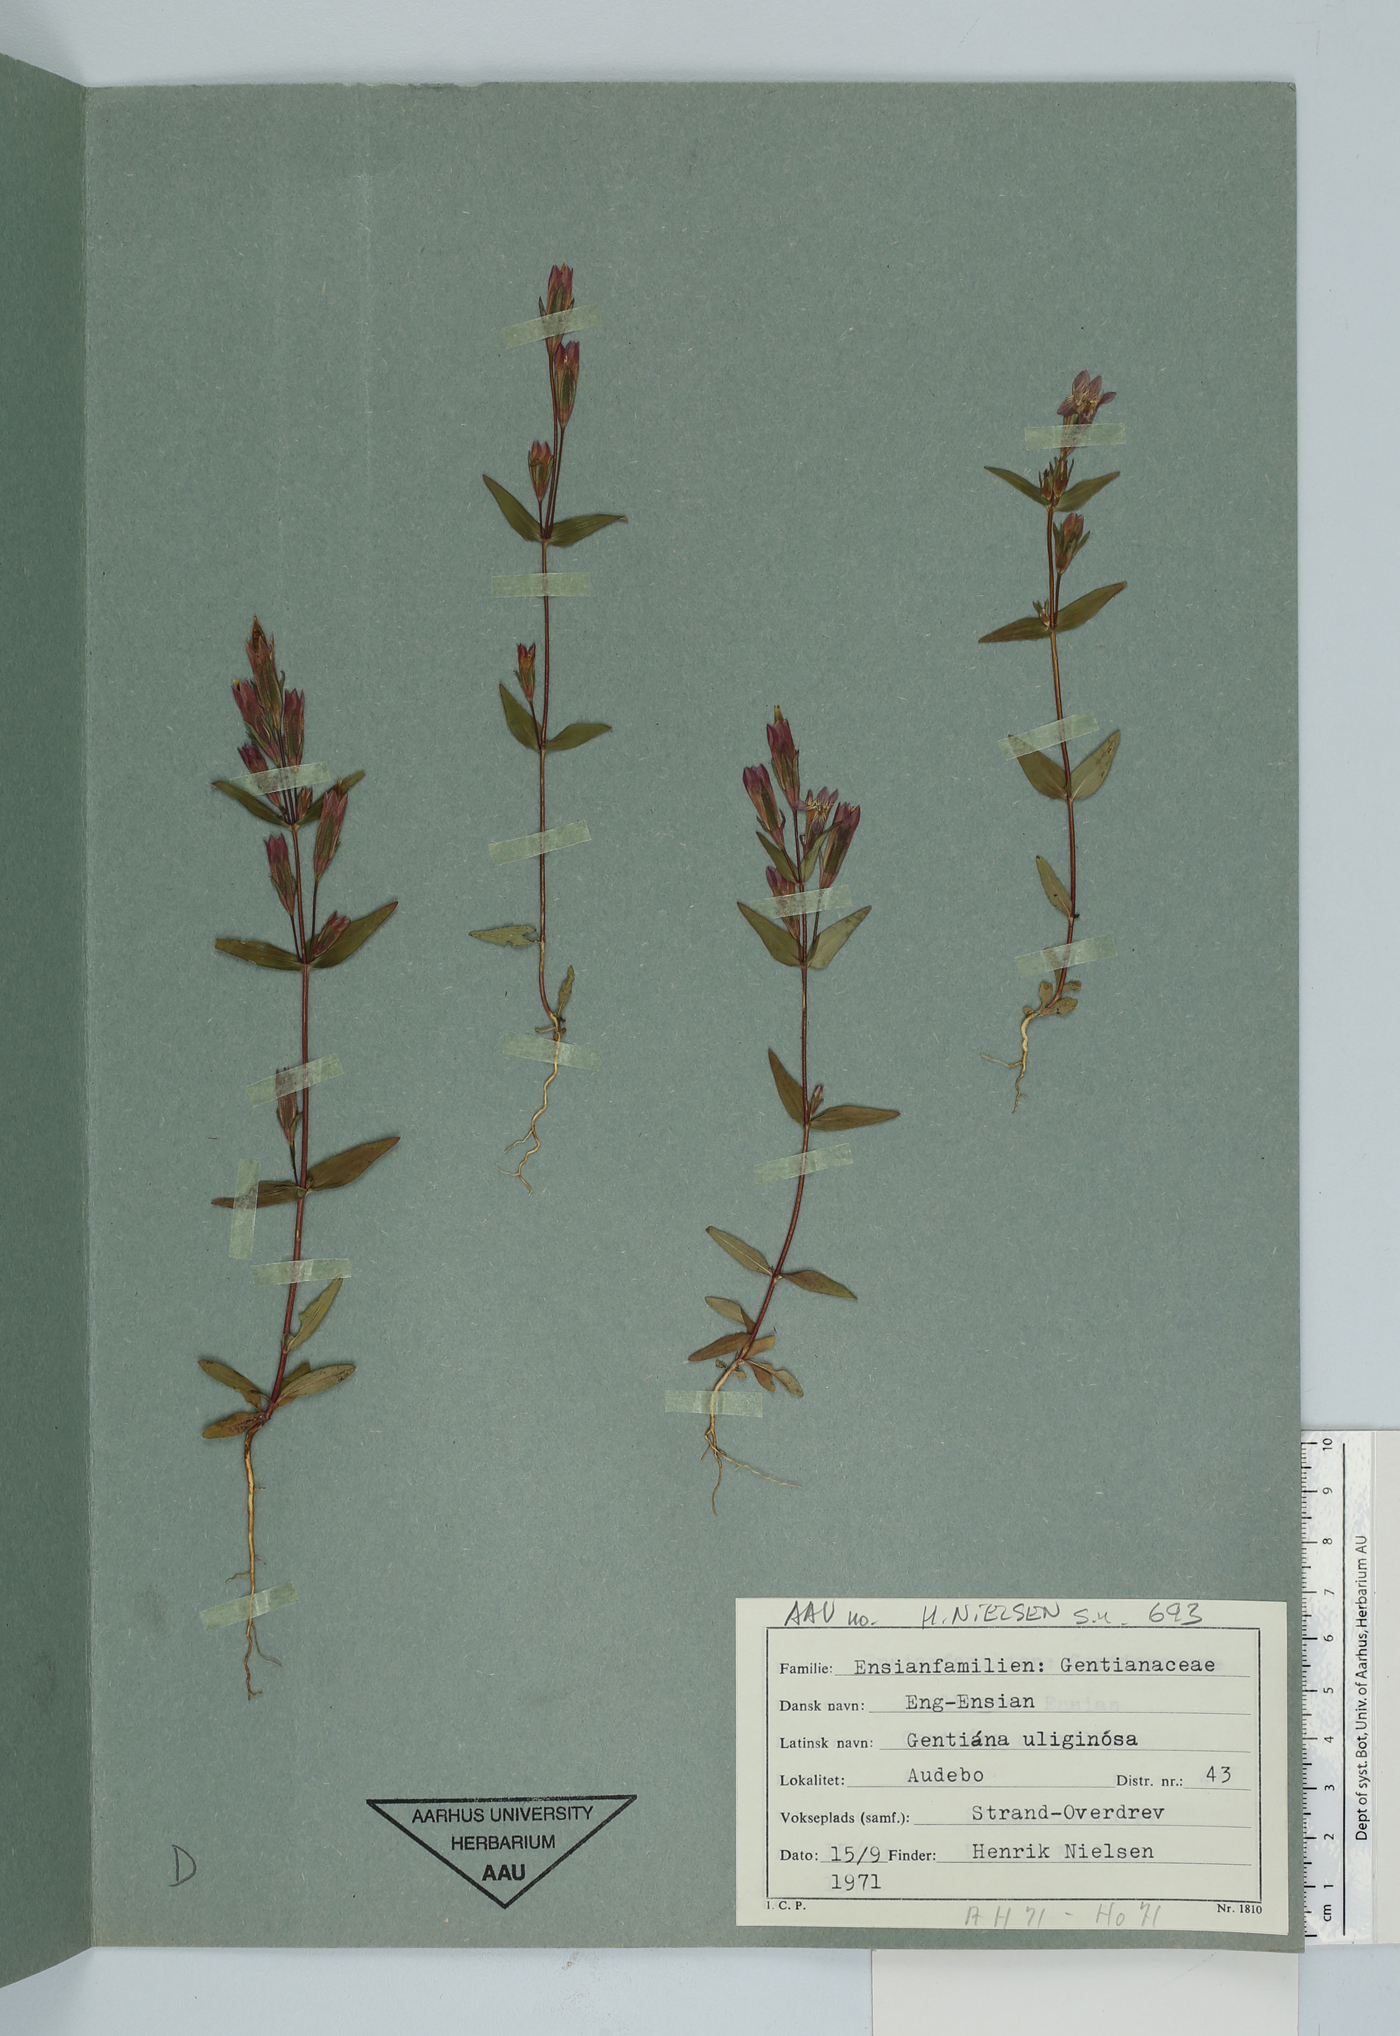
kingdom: Plantae
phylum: Tracheophyta
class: Magnoliopsida
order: Gentianales
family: Gentianaceae
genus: Gentianella
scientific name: Gentianella uliginosa
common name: Dune gentian
